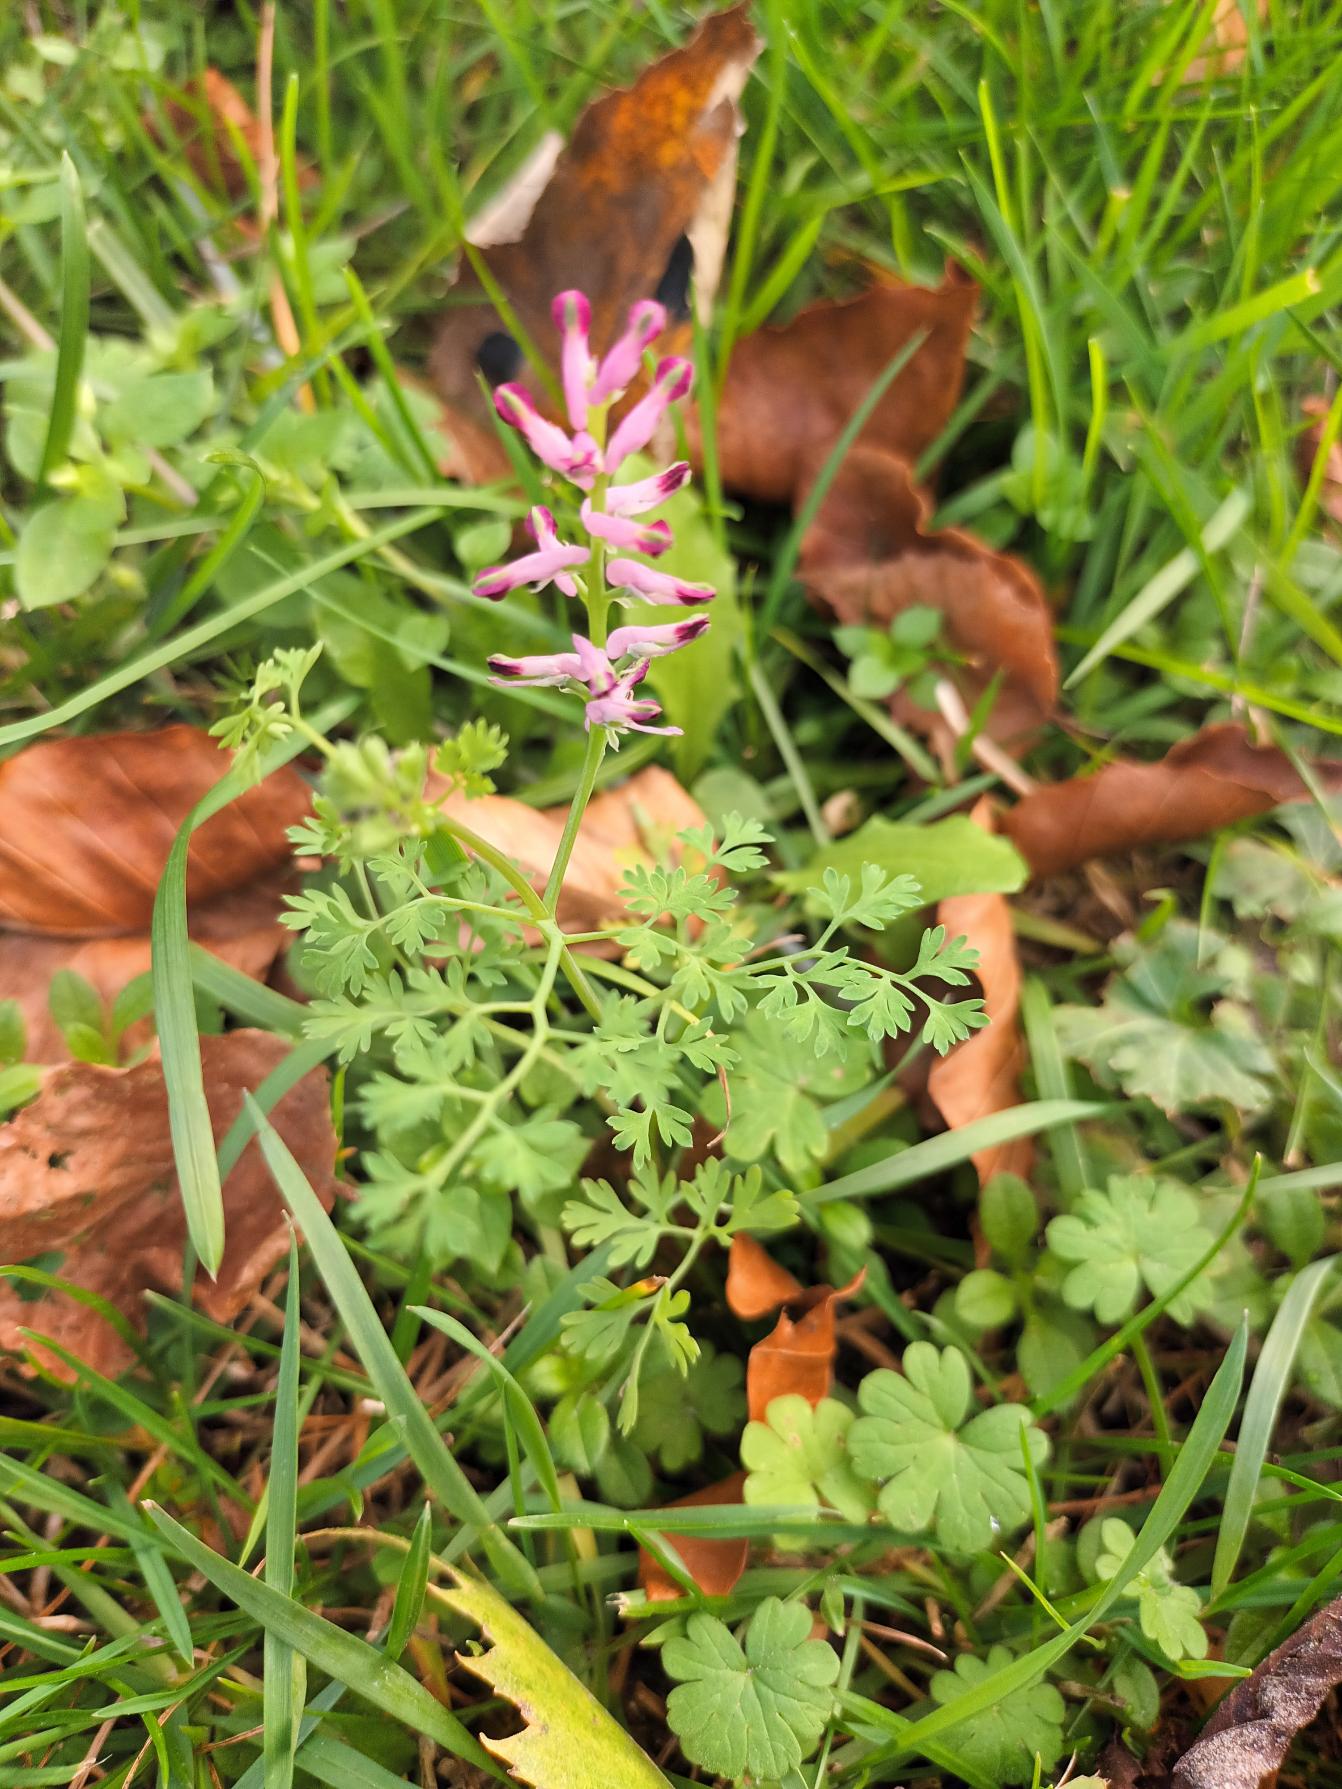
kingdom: Plantae
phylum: Tracheophyta
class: Magnoliopsida
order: Ranunculales
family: Papaveraceae
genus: Fumaria
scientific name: Fumaria officinalis
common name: Læge-jordrøg
